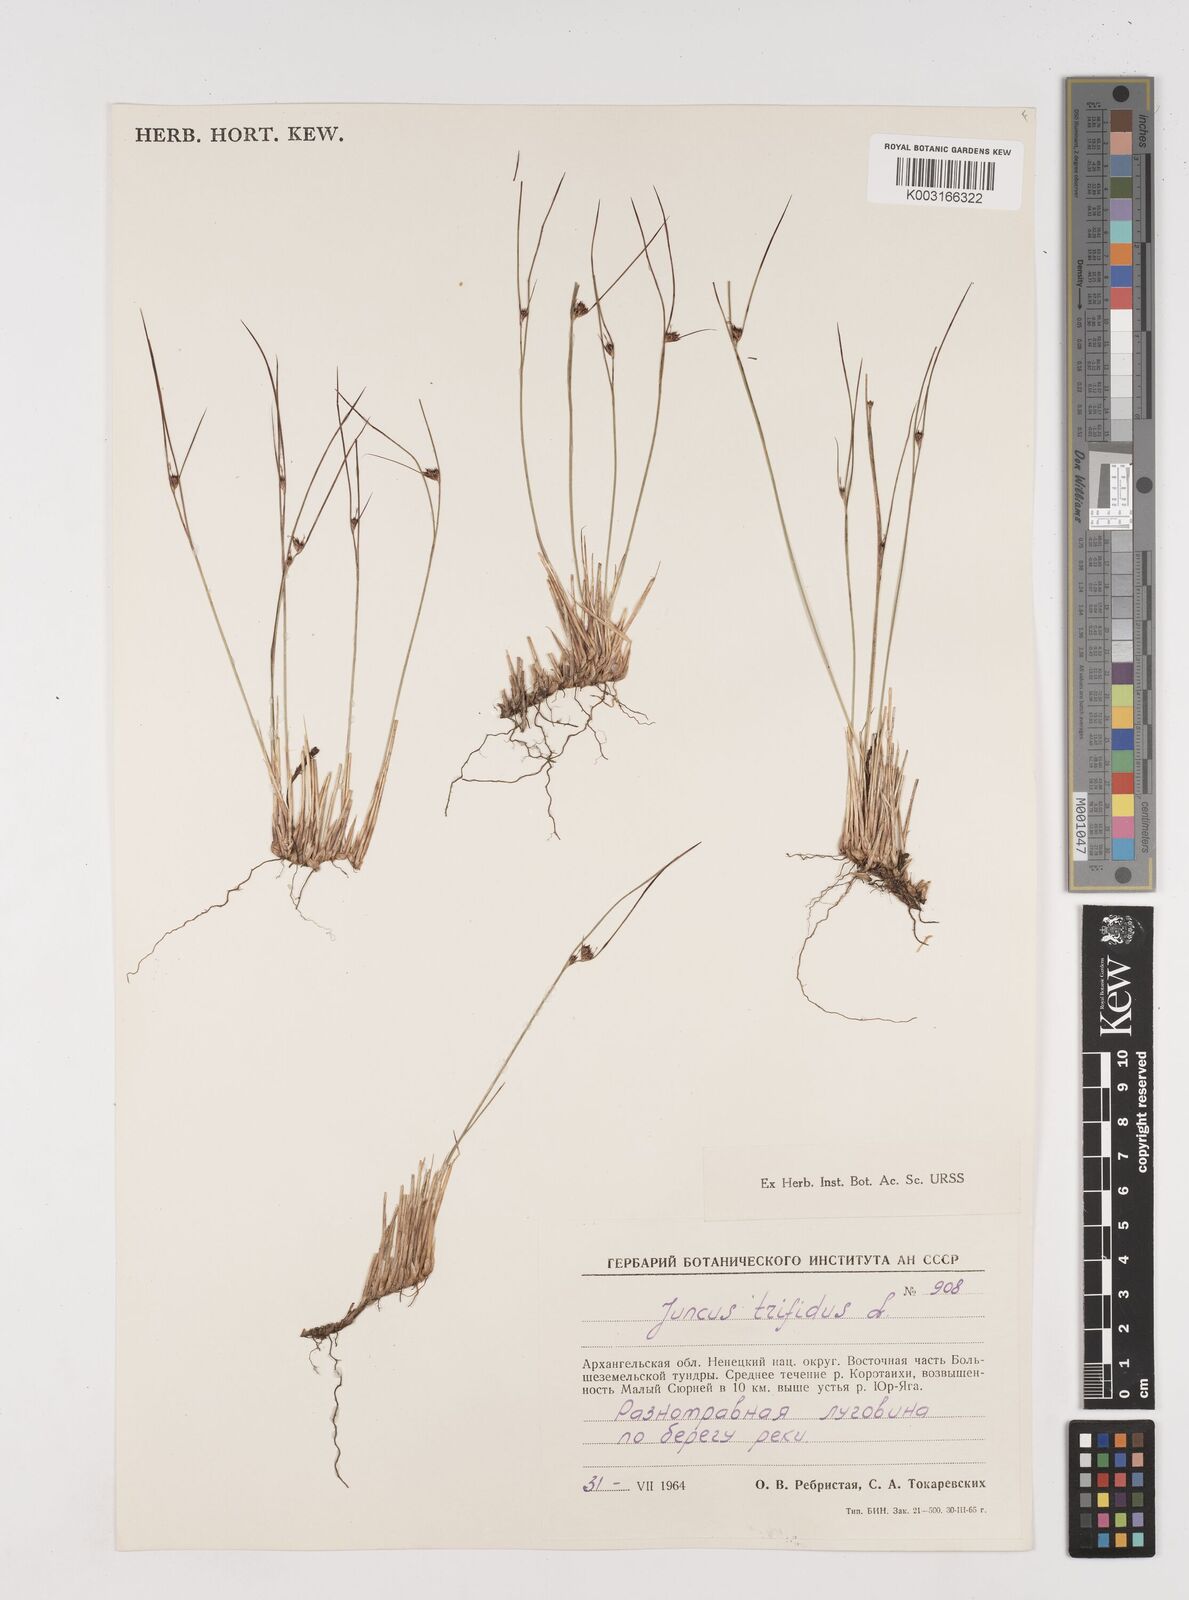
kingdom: Plantae
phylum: Tracheophyta
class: Liliopsida
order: Poales
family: Juncaceae
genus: Oreojuncus
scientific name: Oreojuncus trifidus
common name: Highland rush
